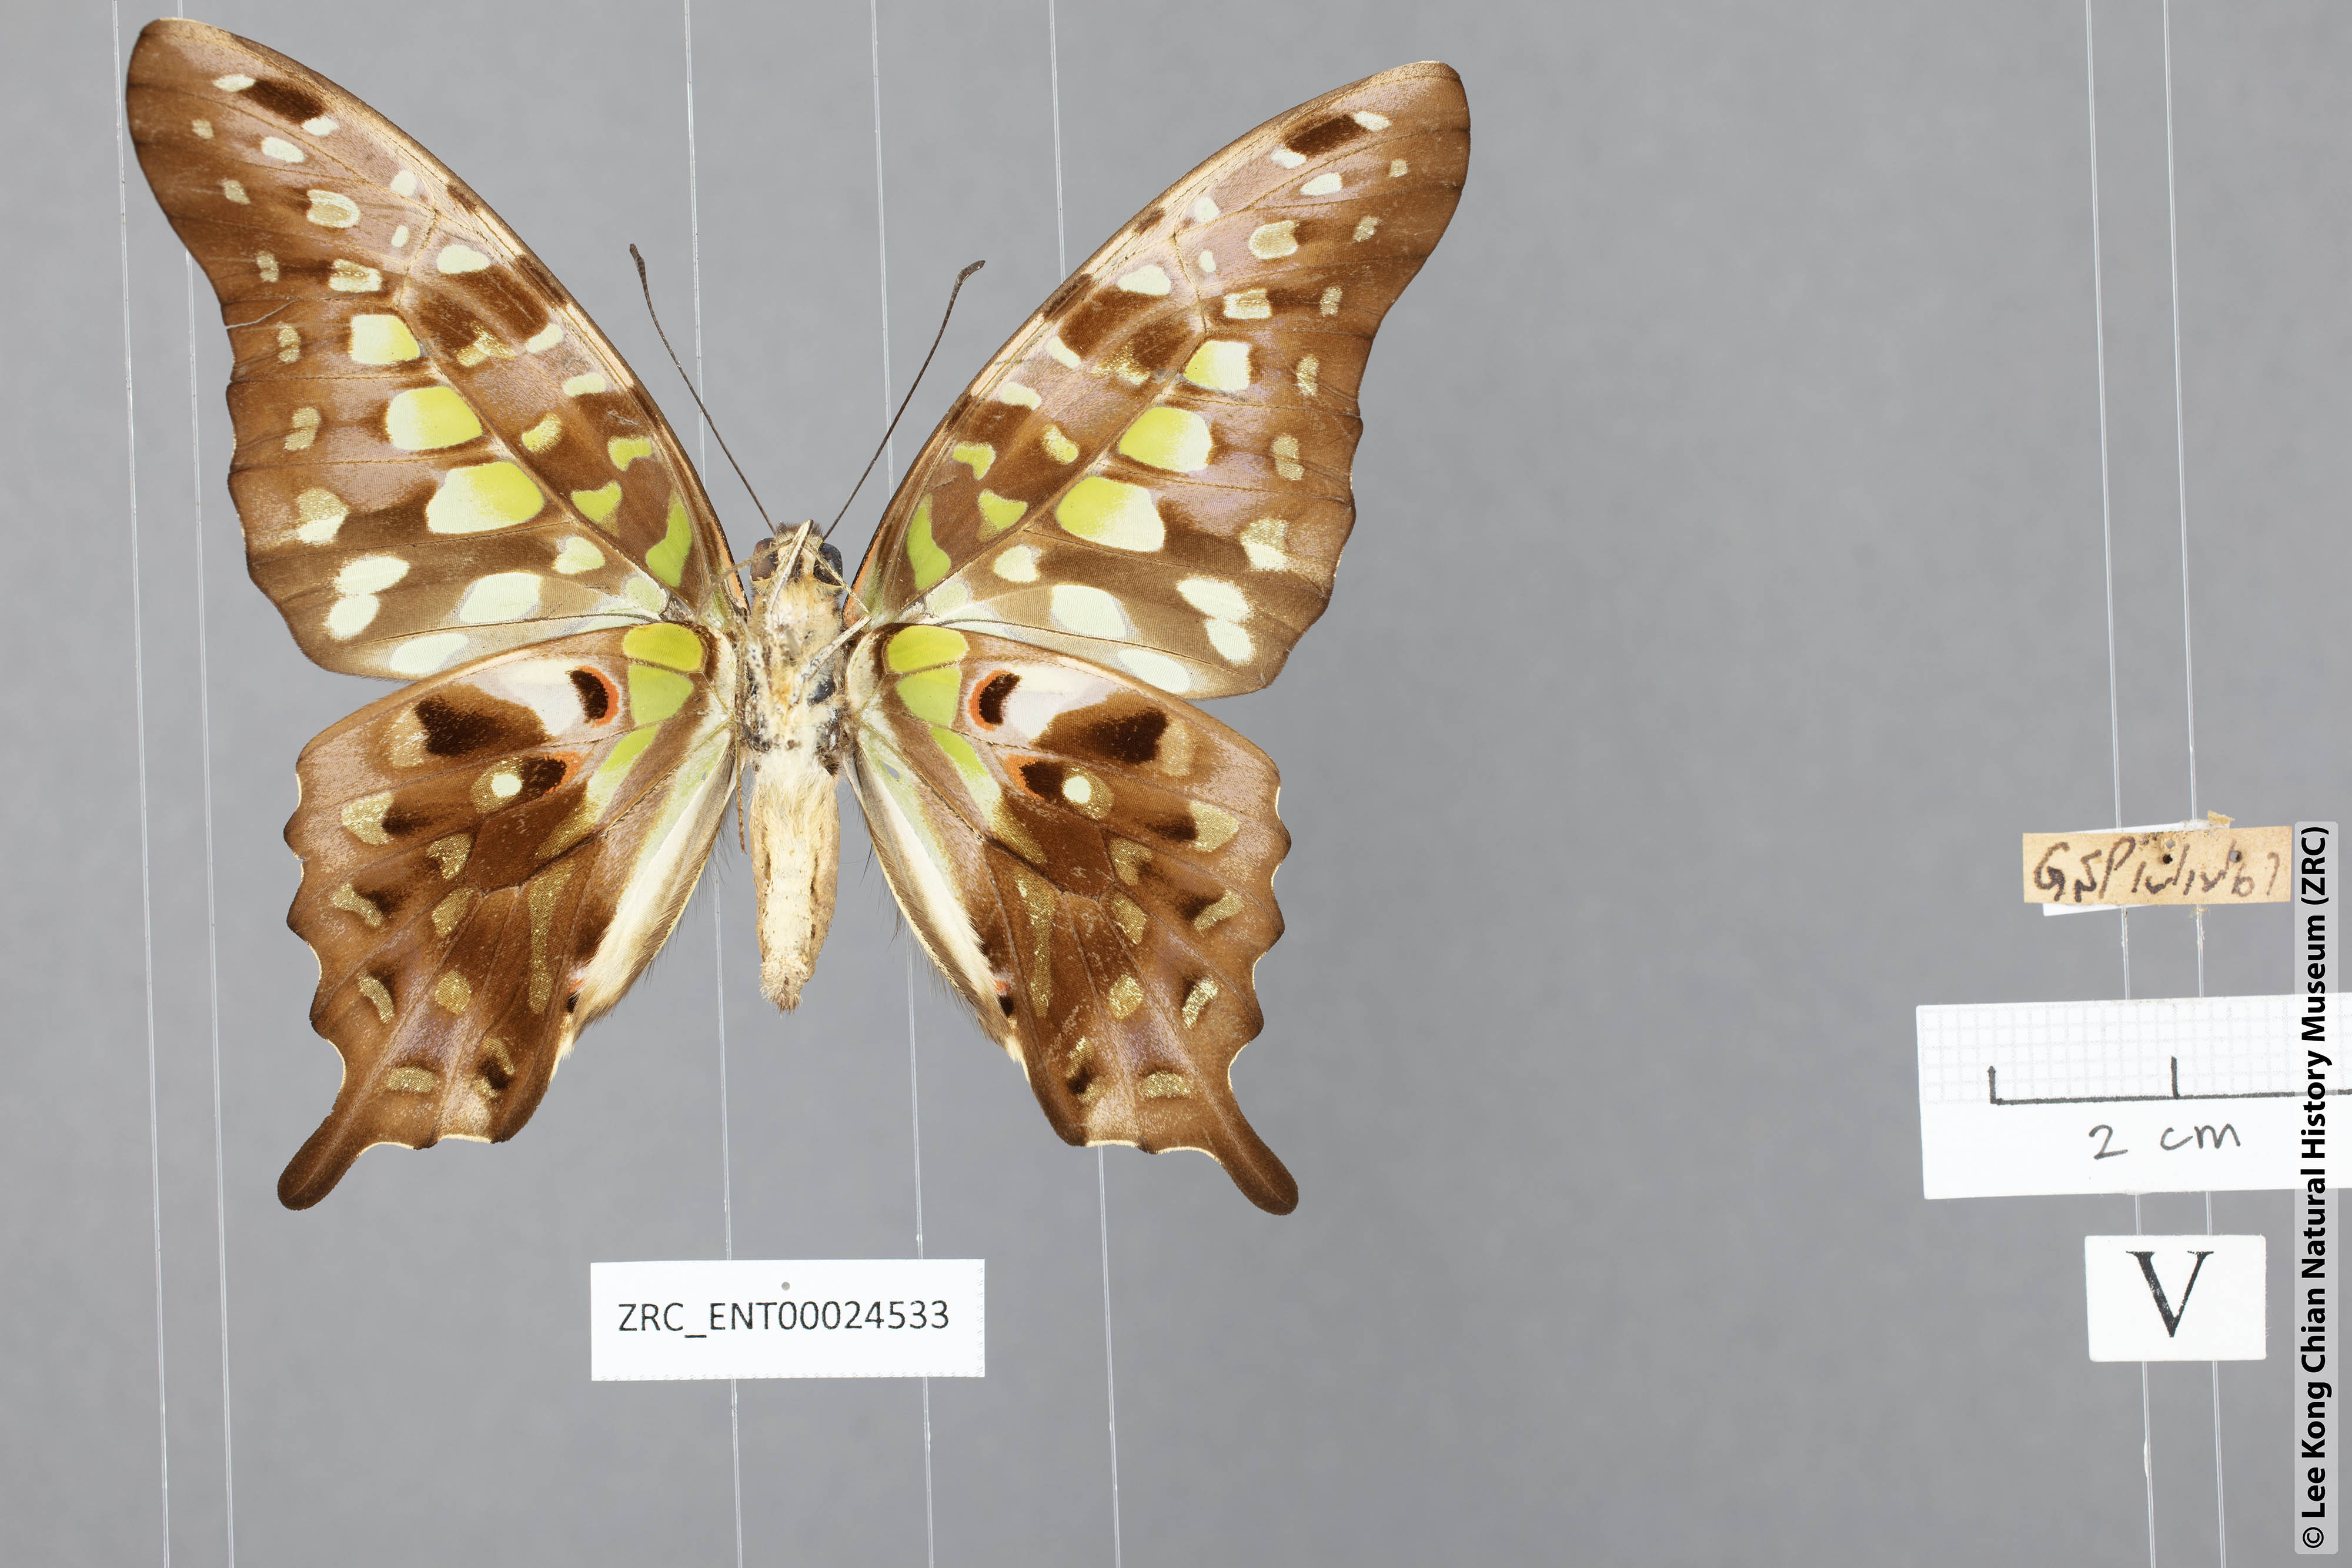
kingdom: Animalia
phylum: Arthropoda
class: Insecta
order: Lepidoptera
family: Papilionidae
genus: Graphium
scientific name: Graphium agamemnon
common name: Tailed jay
